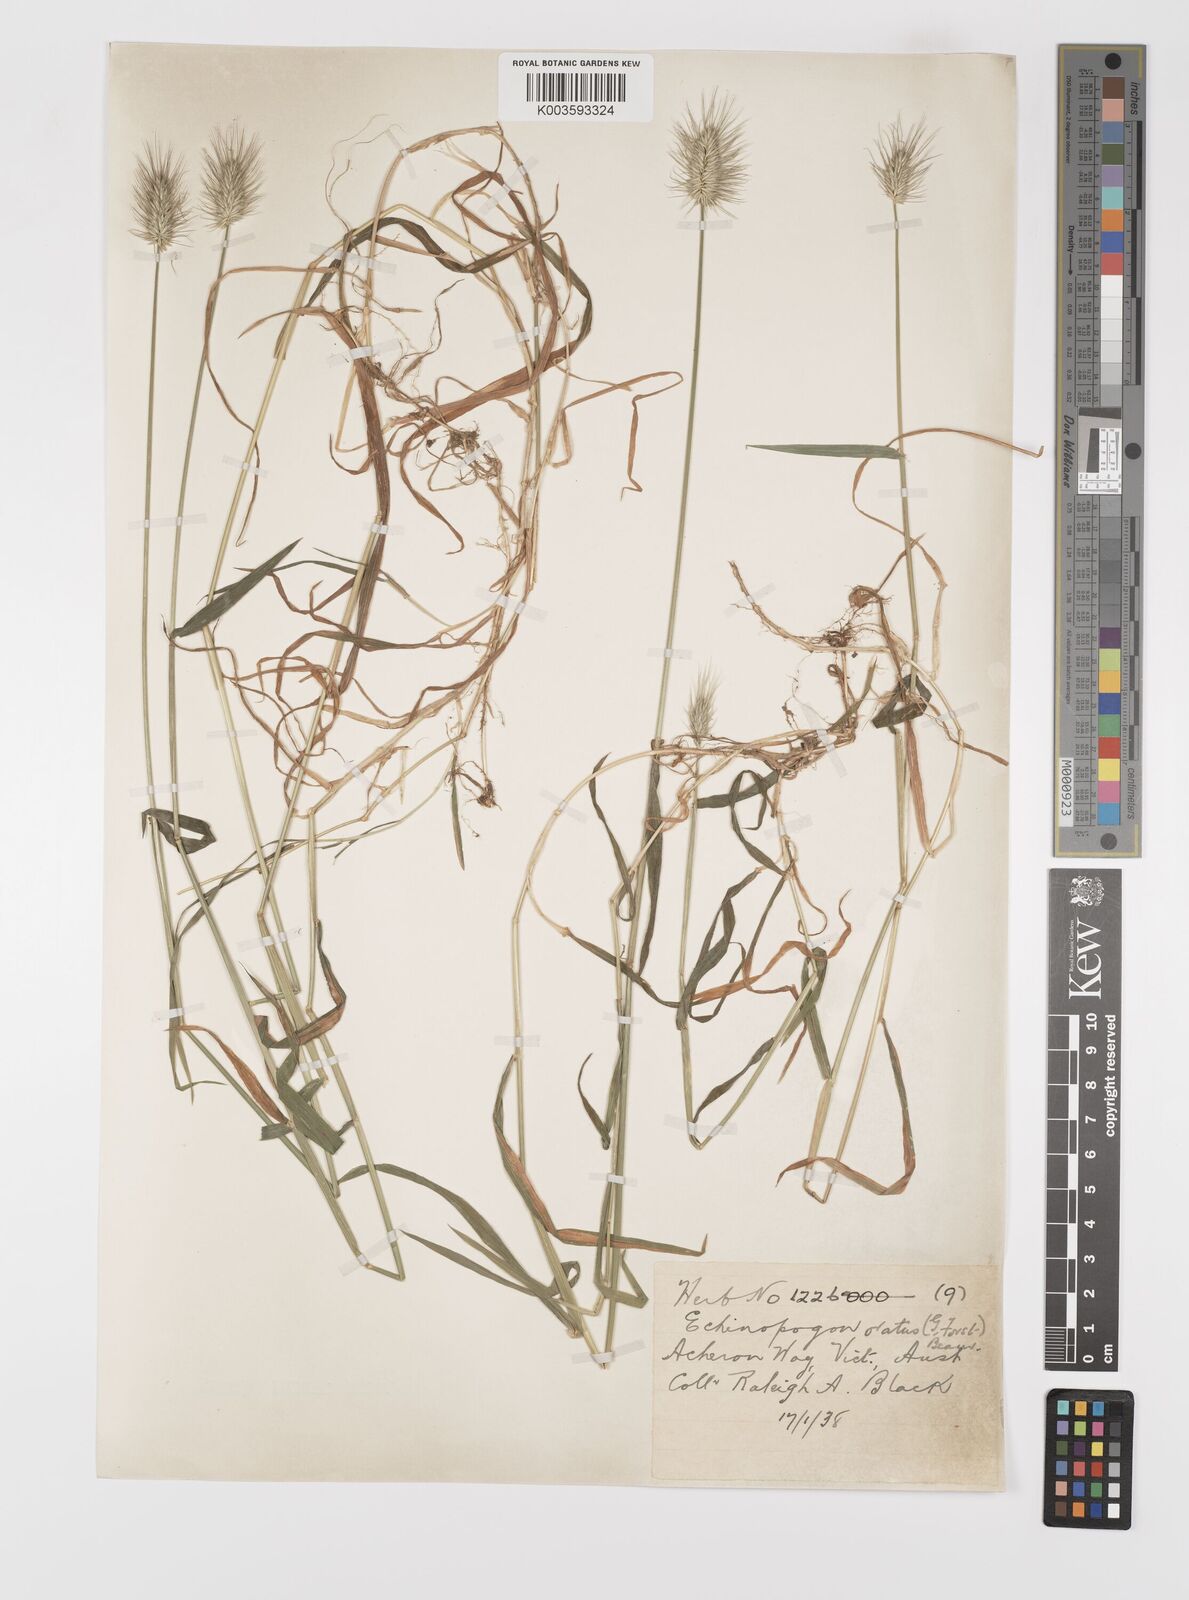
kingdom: Plantae
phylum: Tracheophyta
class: Liliopsida
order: Poales
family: Poaceae
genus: Echinopogon
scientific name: Echinopogon ovatus
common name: Hedgehog-grass
